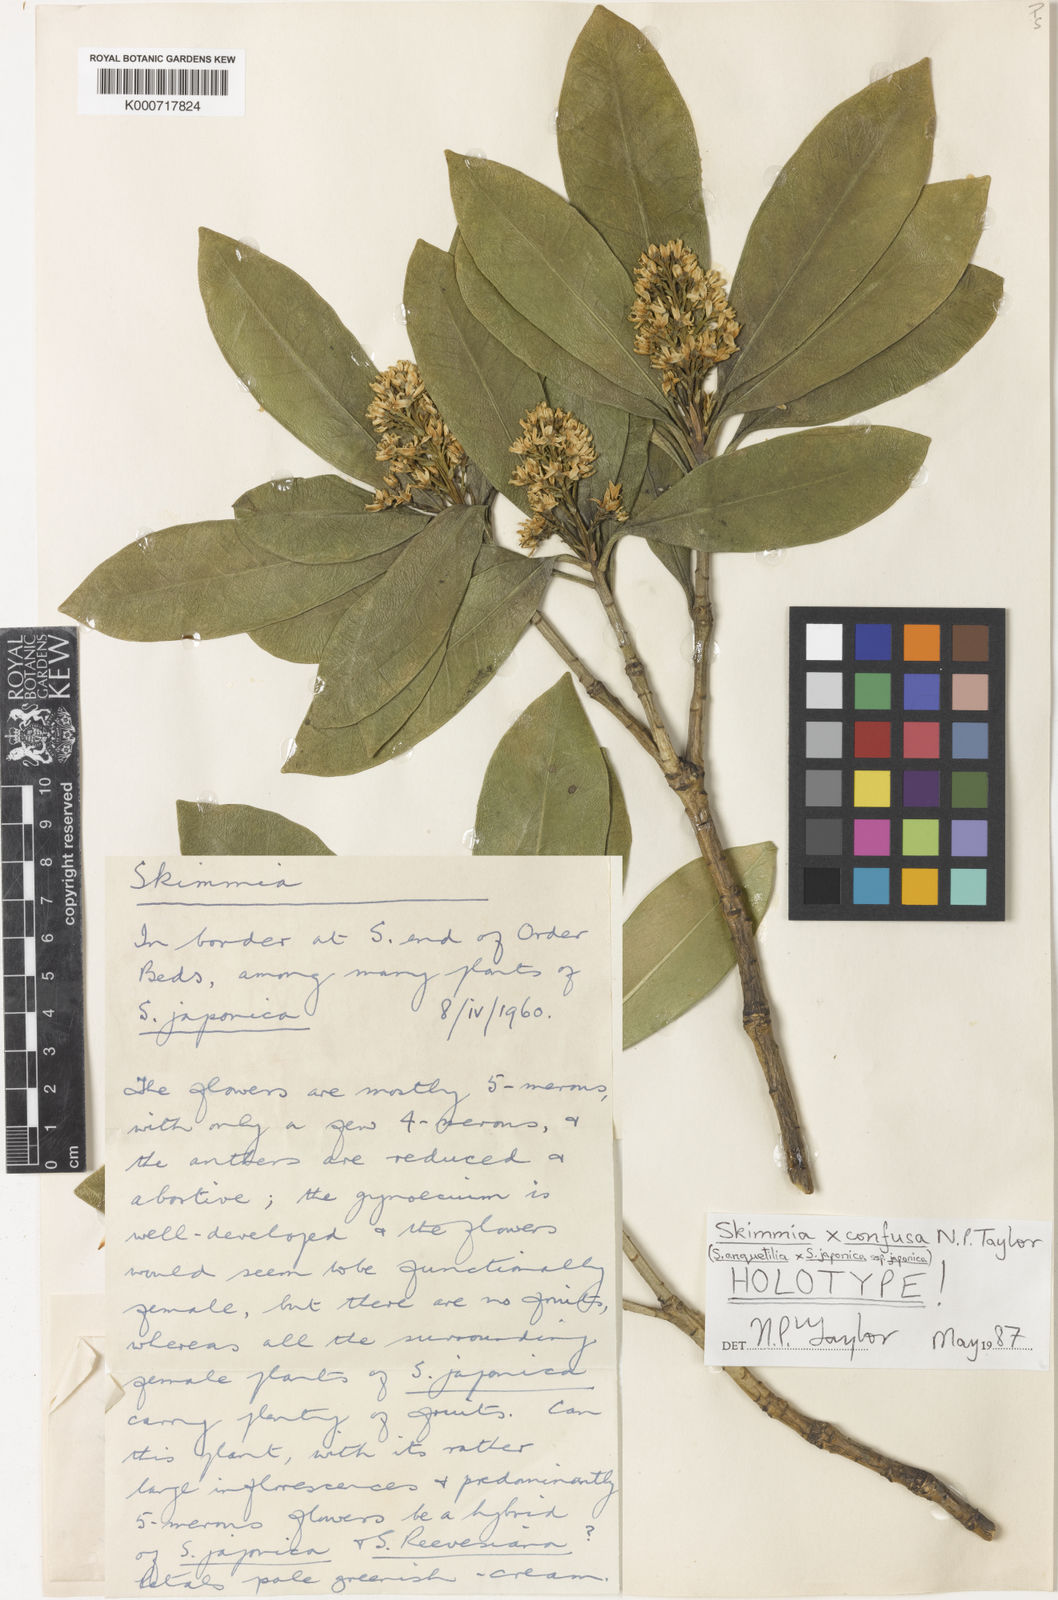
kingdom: Plantae
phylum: Tracheophyta
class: Magnoliopsida
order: Sapindales
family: Rutaceae
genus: Skimmia
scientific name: Skimmia
